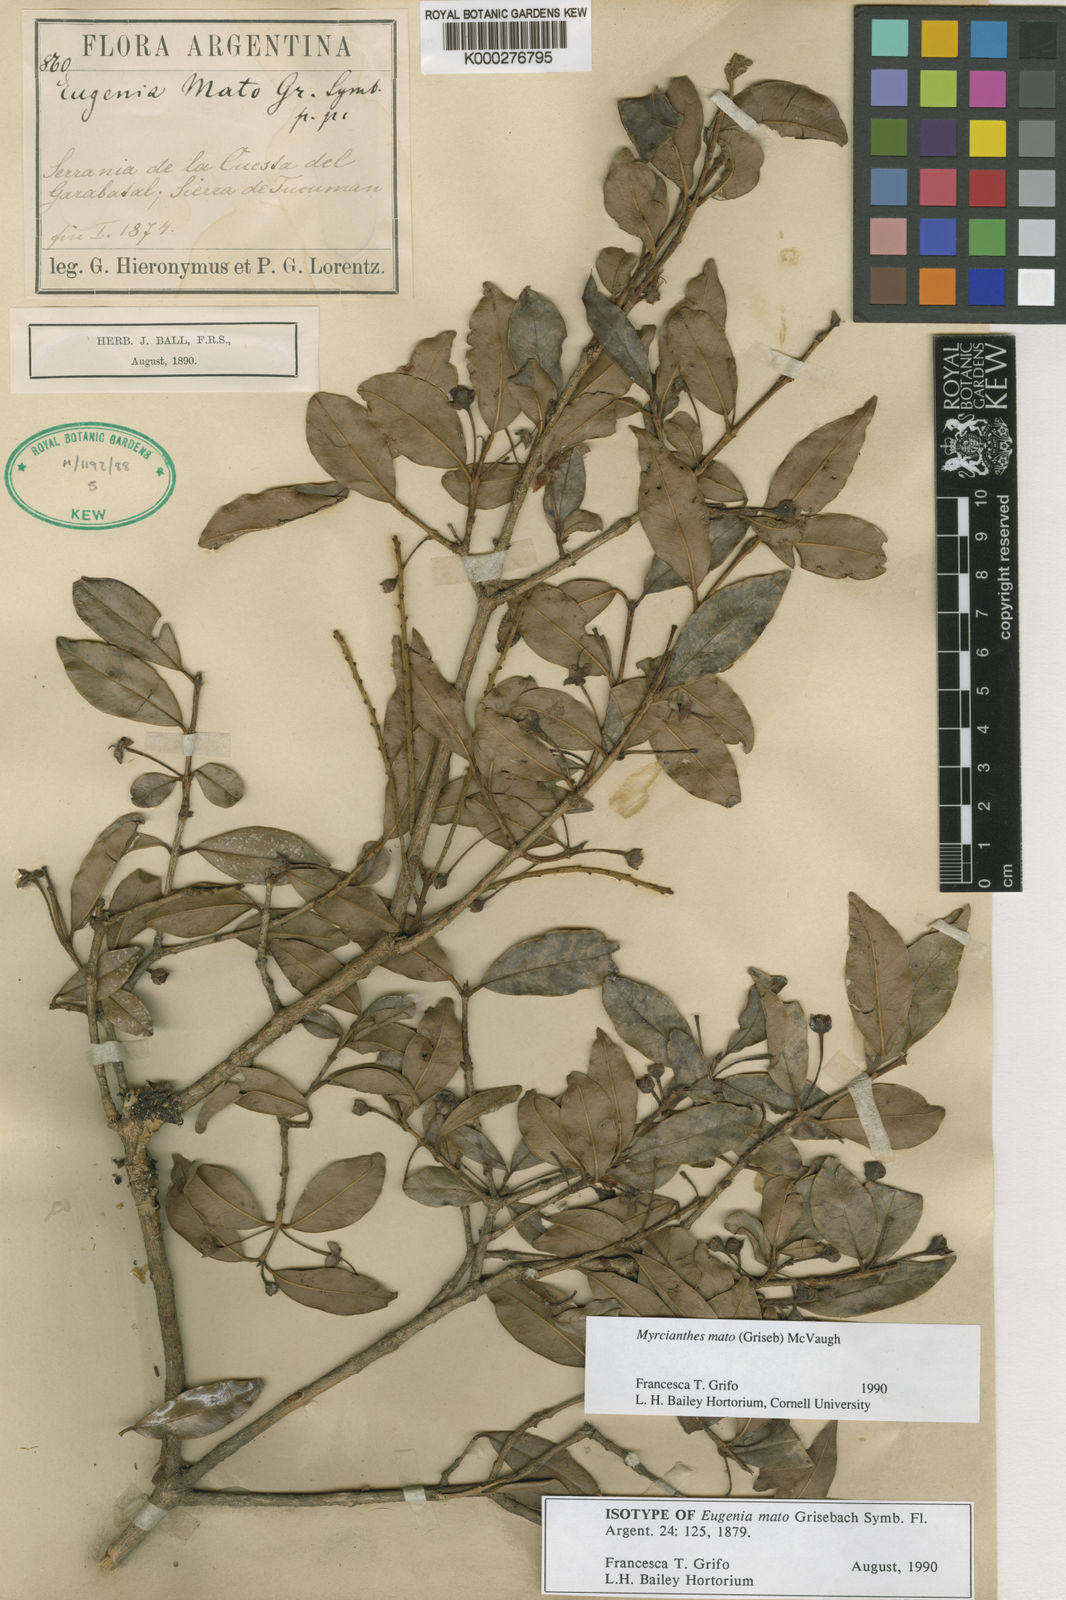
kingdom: Plantae
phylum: Tracheophyta
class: Magnoliopsida
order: Myrtales
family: Myrtaceae
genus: Myrcianthes
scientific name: Myrcianthes mato
